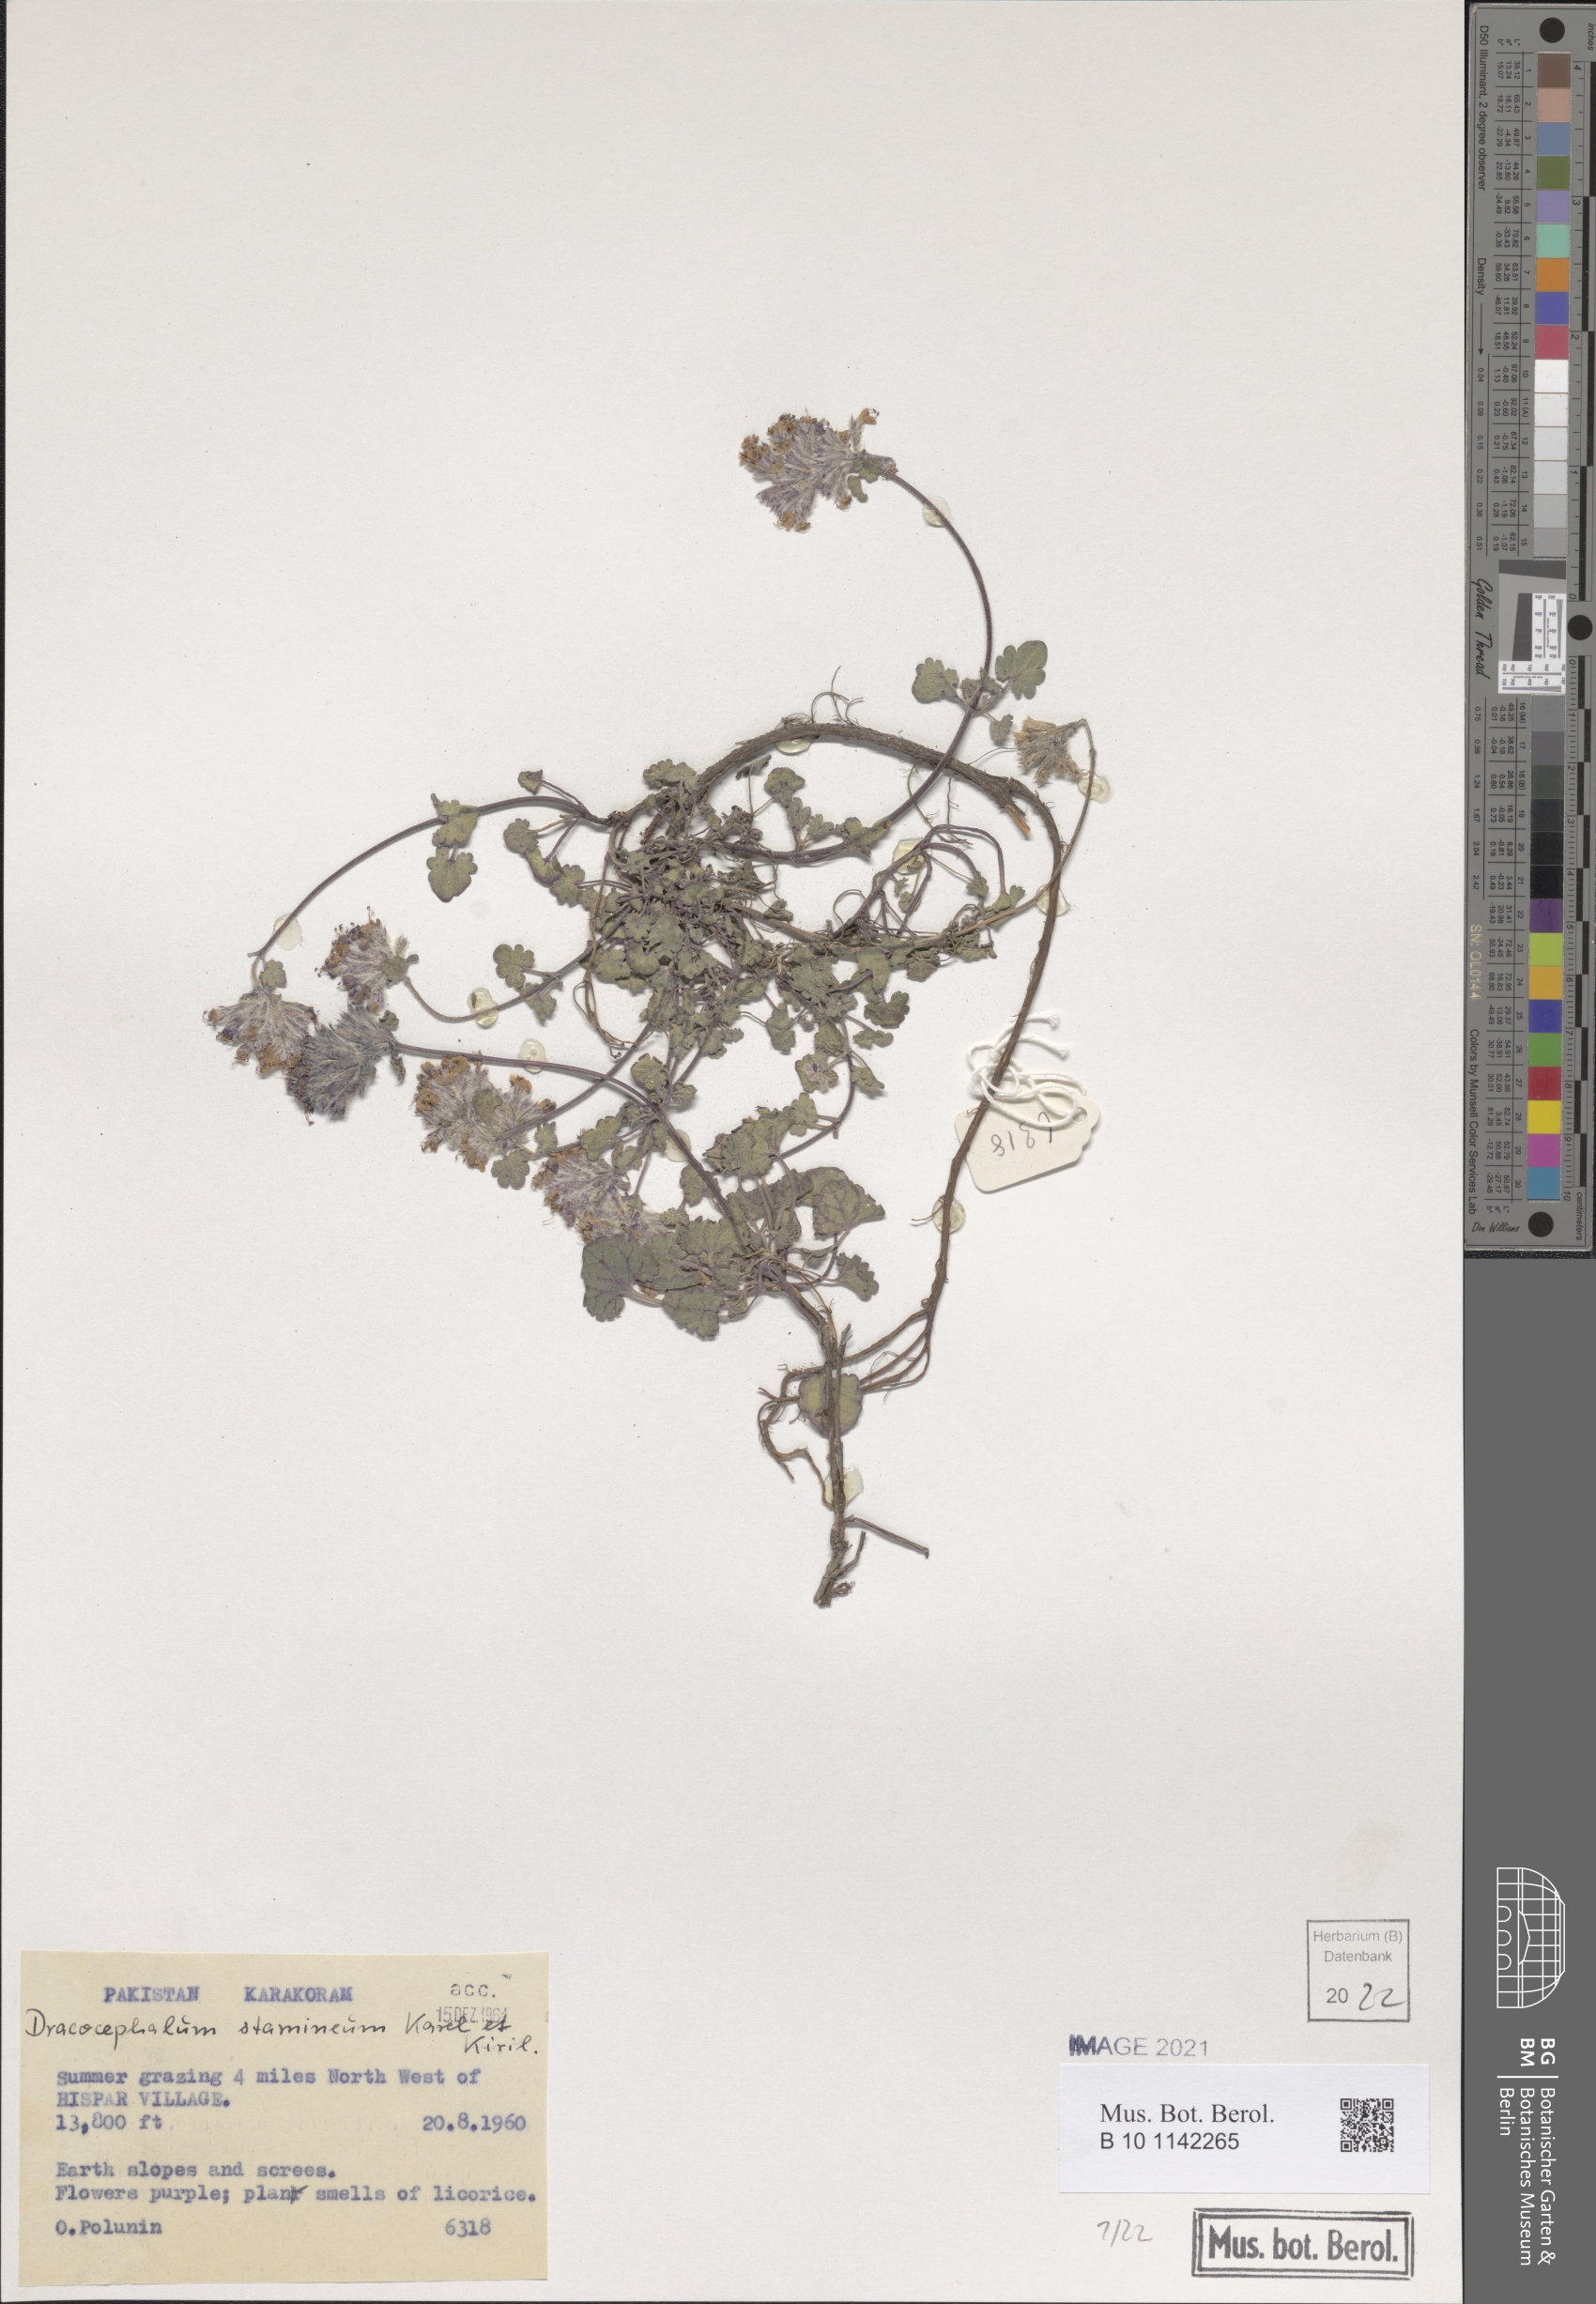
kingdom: Plantae
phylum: Tracheophyta
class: Magnoliopsida
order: Lamiales
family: Lamiaceae
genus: Dracocephalum
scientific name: Dracocephalum stamineum
